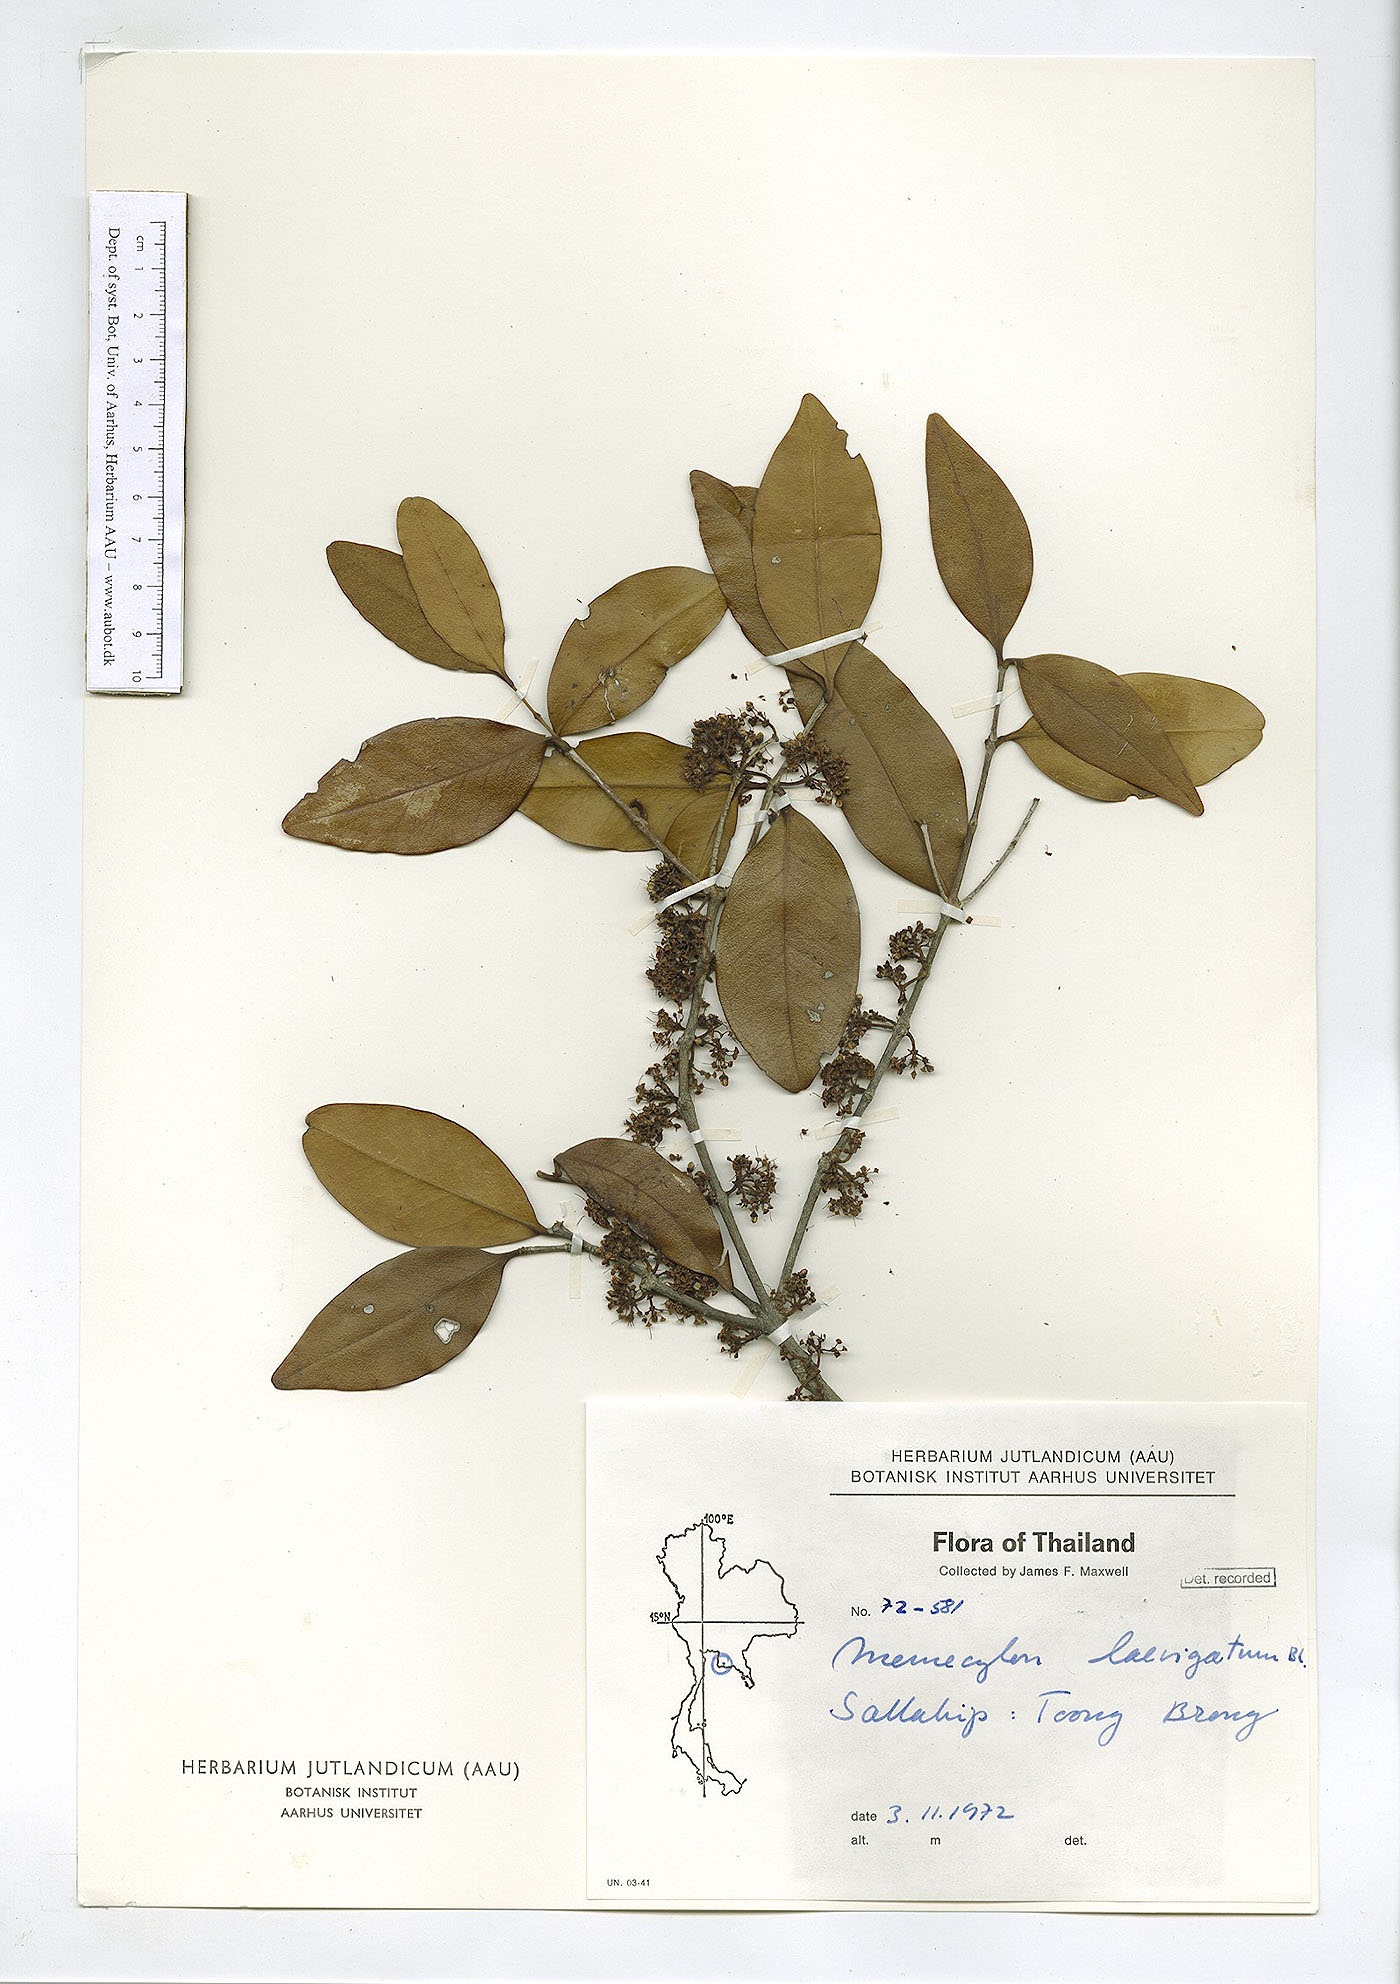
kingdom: Plantae
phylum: Tracheophyta
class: Magnoliopsida
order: Myrtales
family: Melastomataceae
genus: Memecylon
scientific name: Memecylon edule
